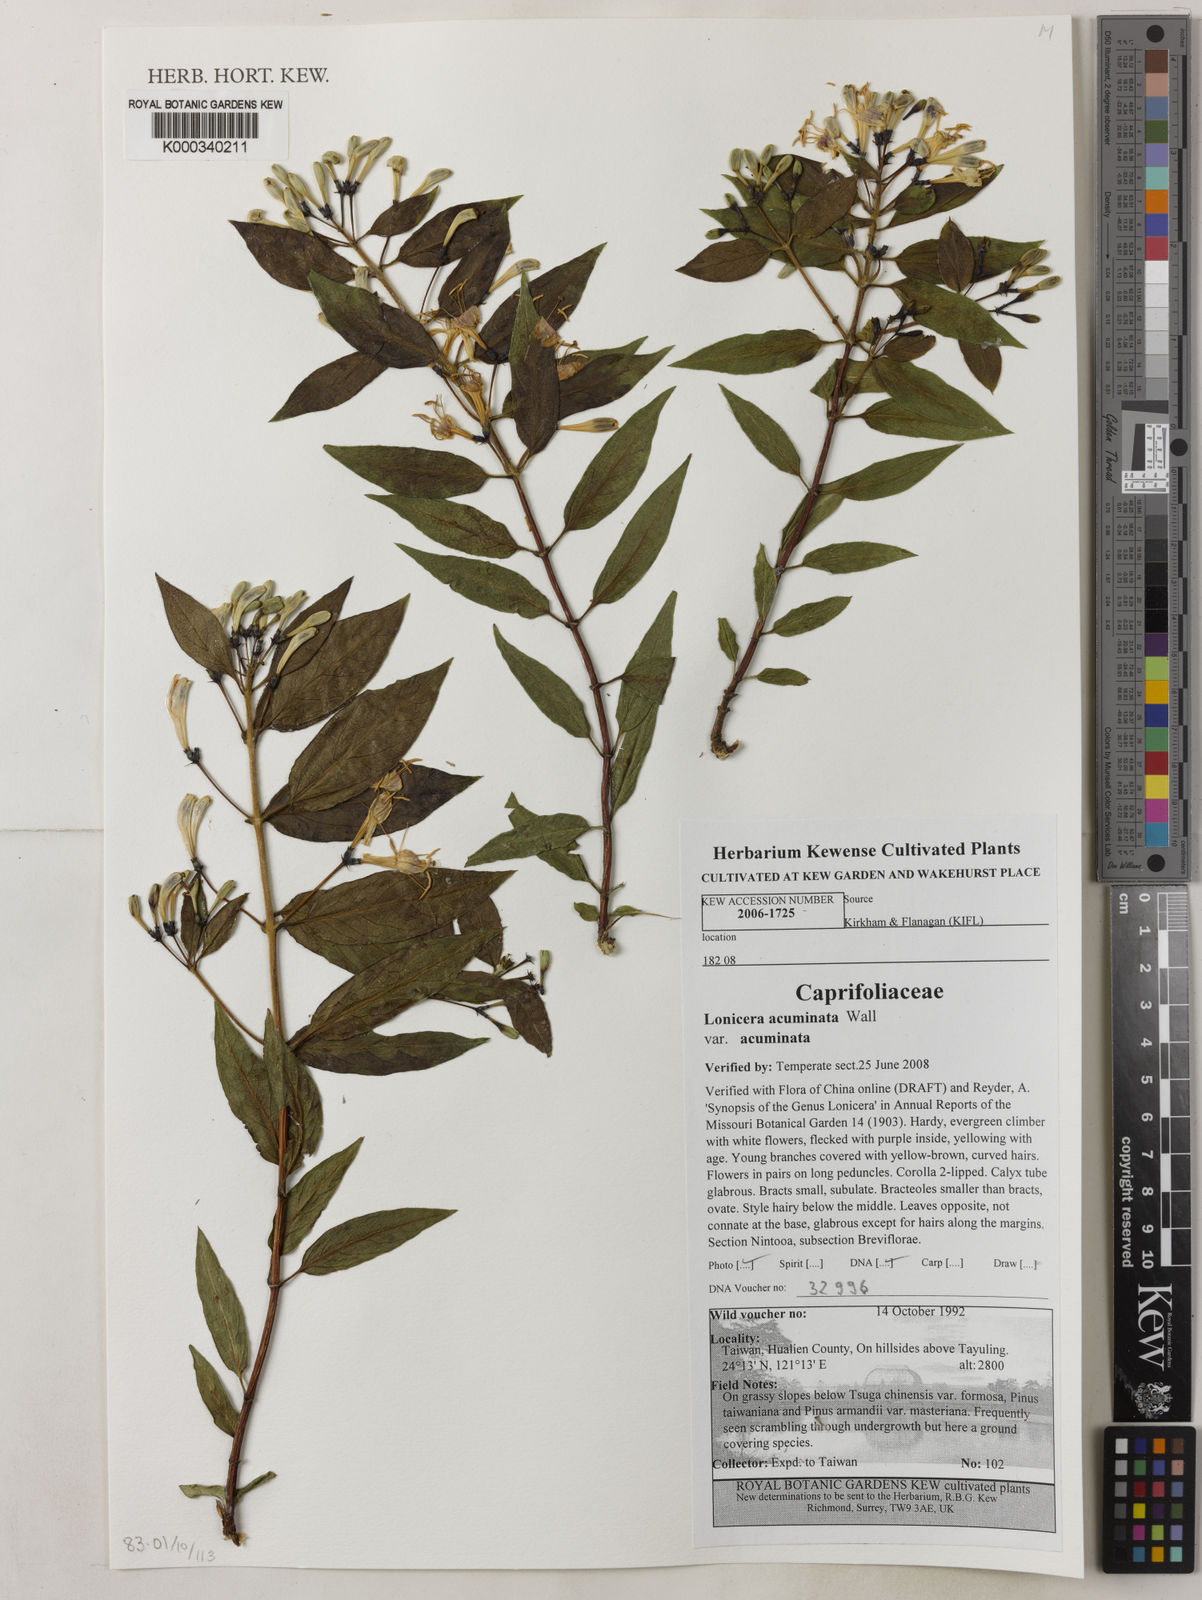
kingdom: Plantae
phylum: Tracheophyta
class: Magnoliopsida
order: Dipsacales
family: Caprifoliaceae
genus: Lonicera
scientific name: Lonicera acuminata
